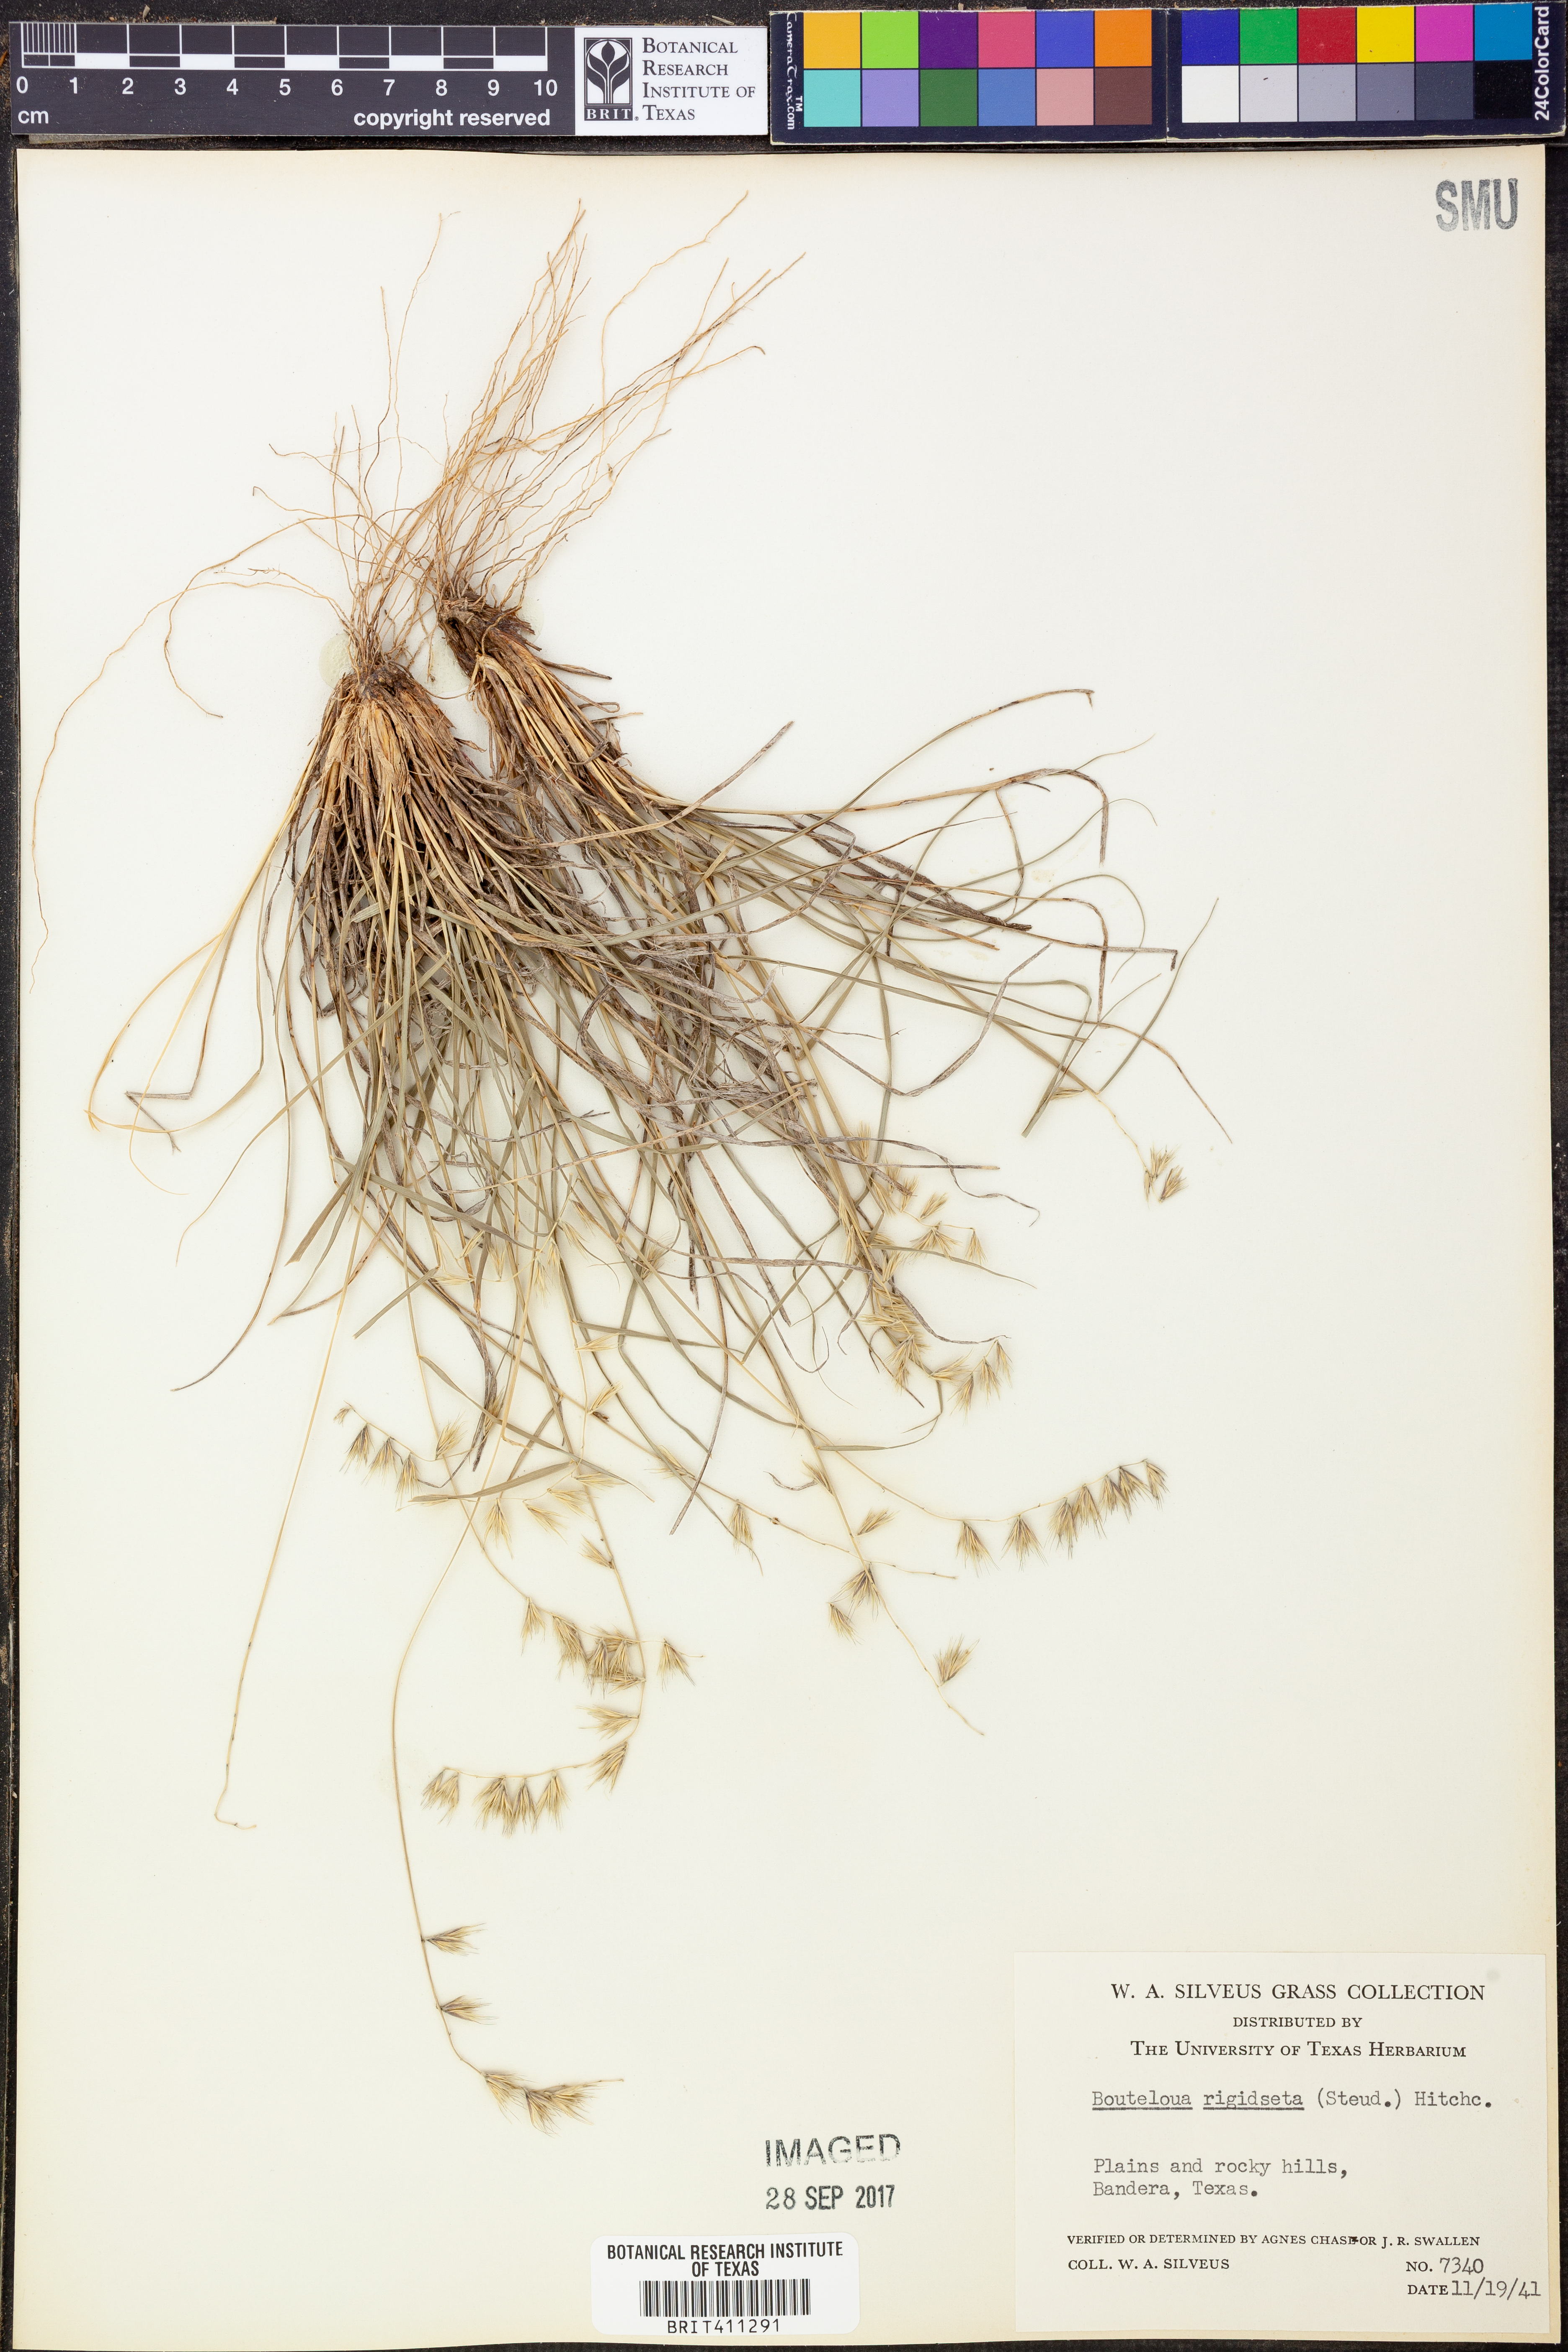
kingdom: Plantae
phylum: Tracheophyta
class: Liliopsida
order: Poales
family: Poaceae
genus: Bouteloua
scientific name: Bouteloua rigidiseta
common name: Texas grama
